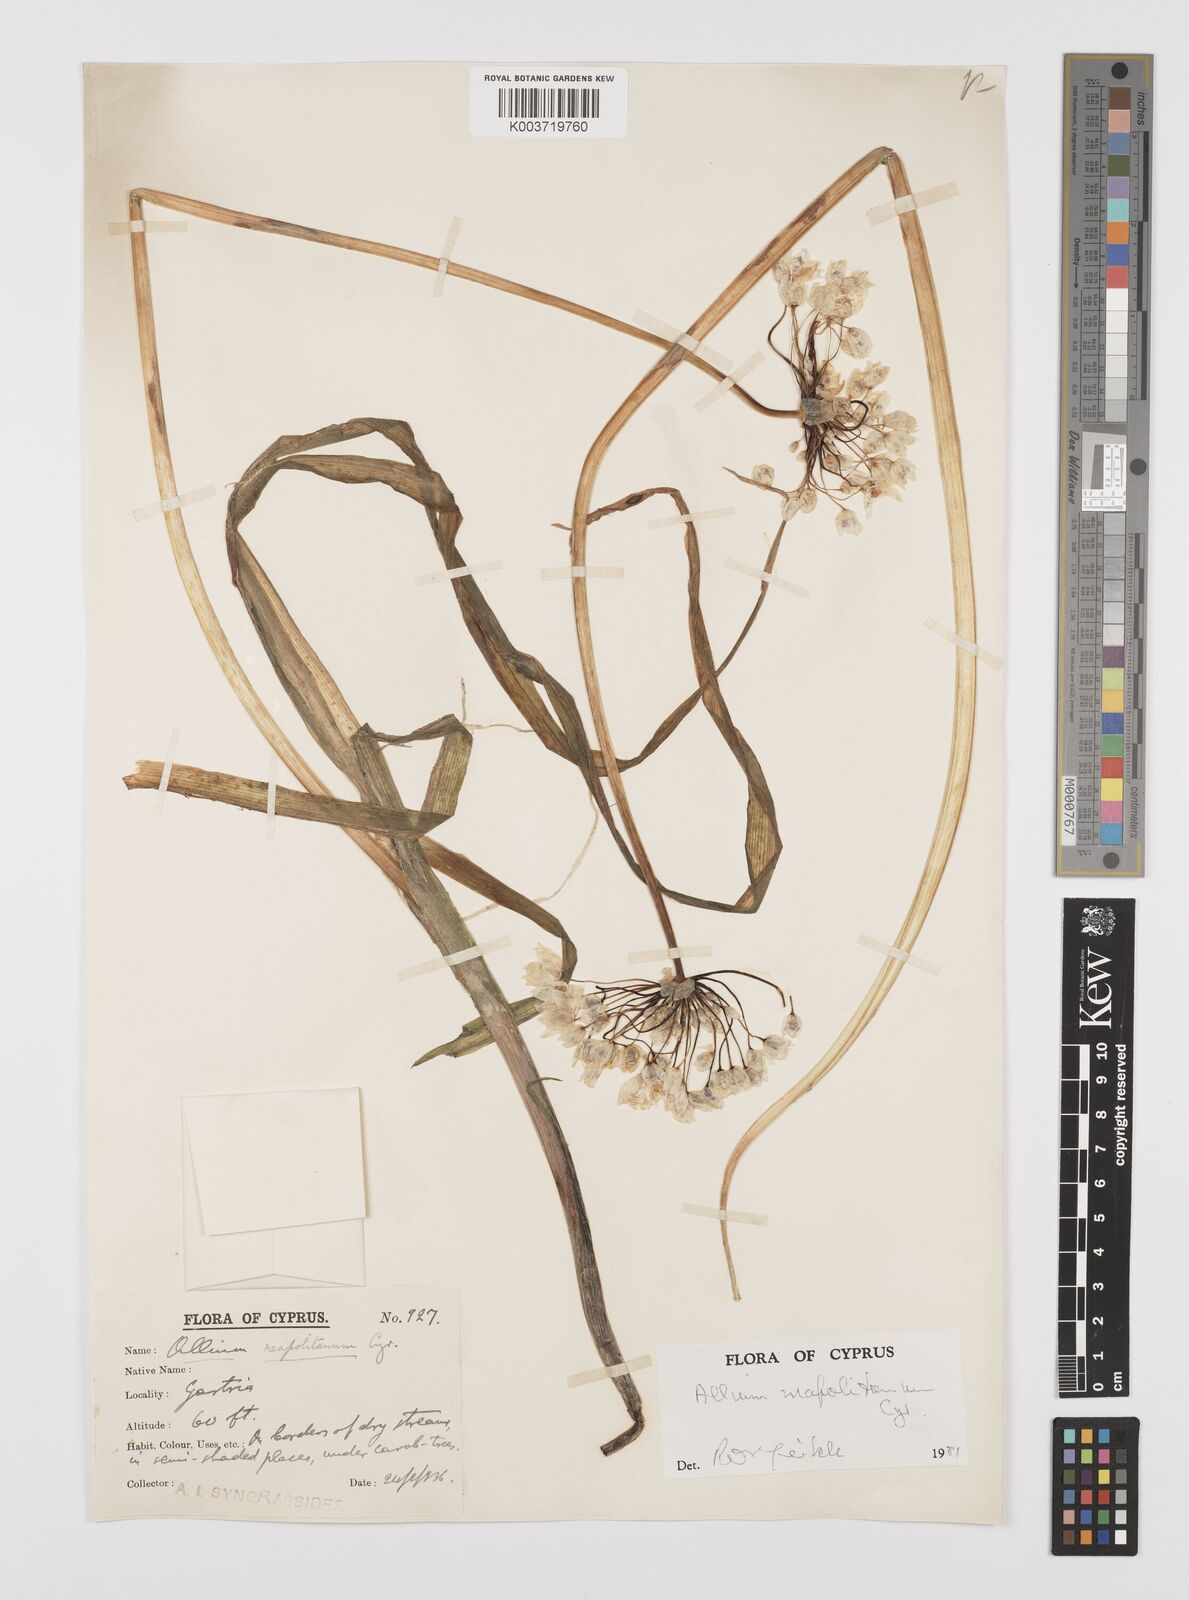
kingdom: Plantae
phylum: Tracheophyta
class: Liliopsida
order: Asparagales
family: Amaryllidaceae
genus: Allium
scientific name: Allium neapolitanum
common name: Neapolitan garlic
